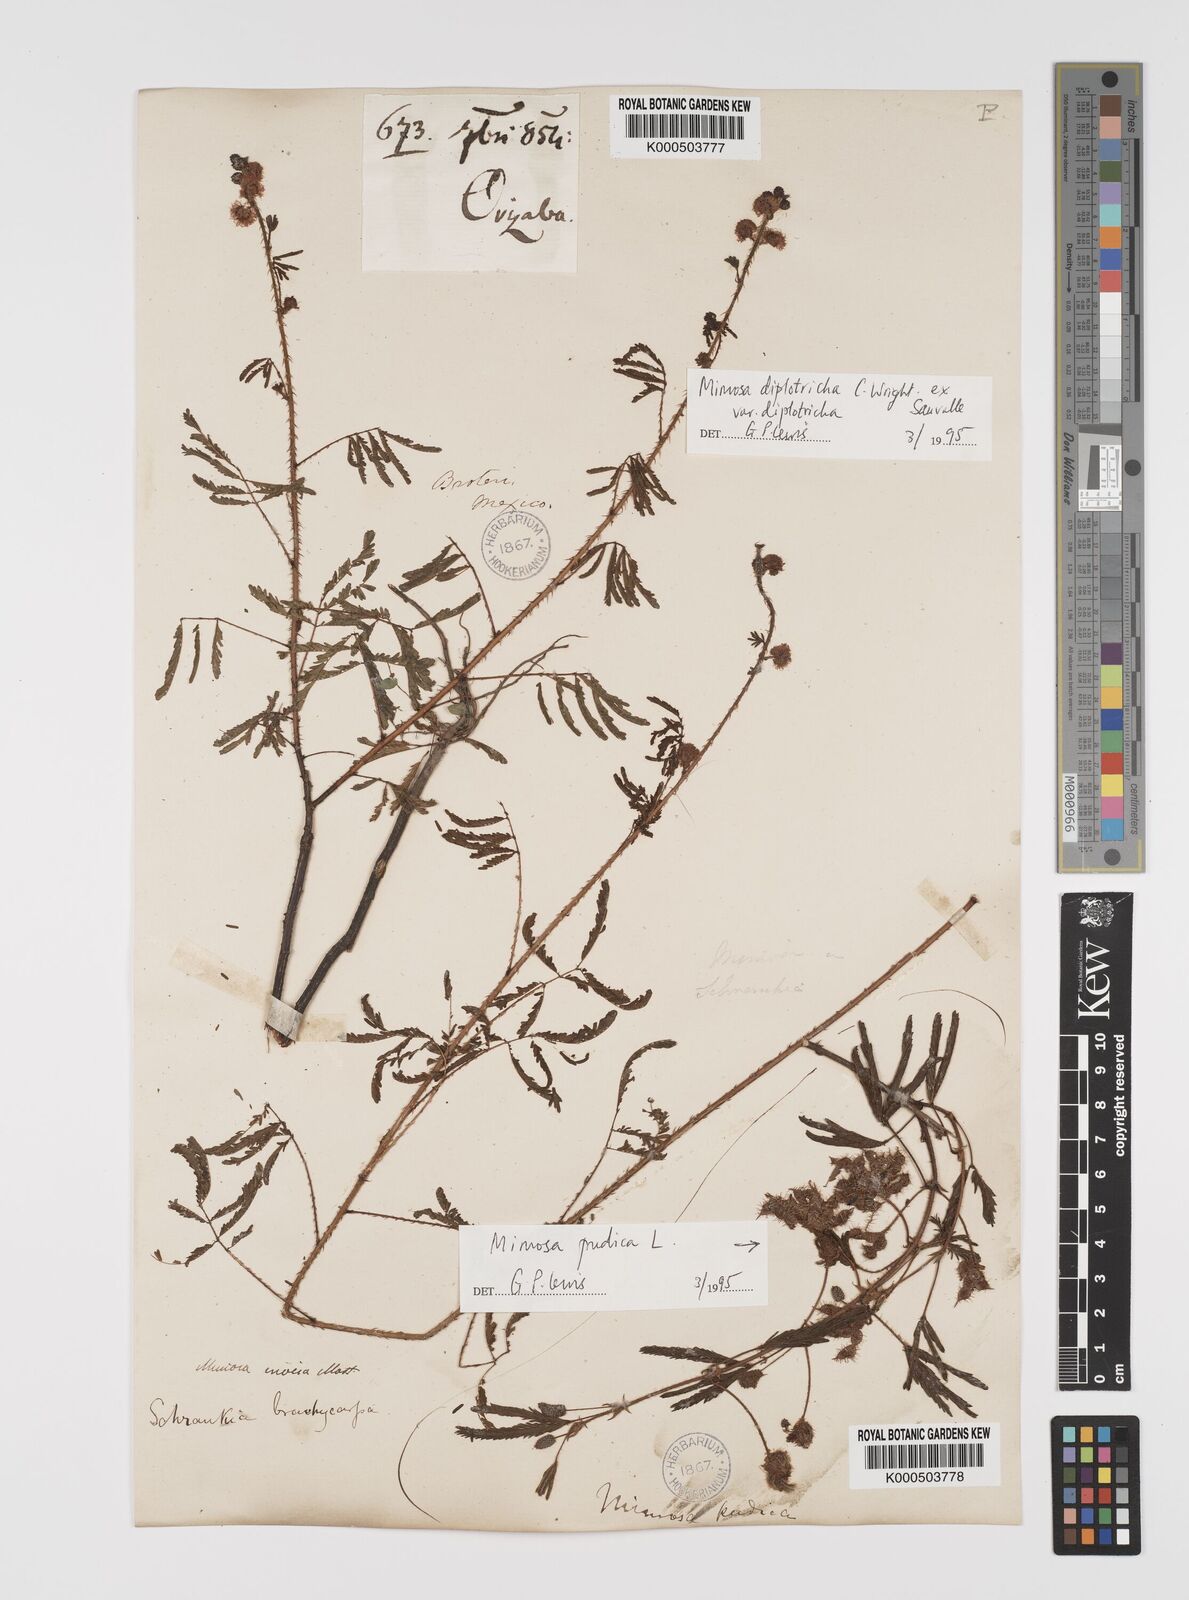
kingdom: Plantae
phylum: Tracheophyta
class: Magnoliopsida
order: Fabales
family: Fabaceae
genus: Mimosa
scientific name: Mimosa diplotricha
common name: Giant sensitive-plant
